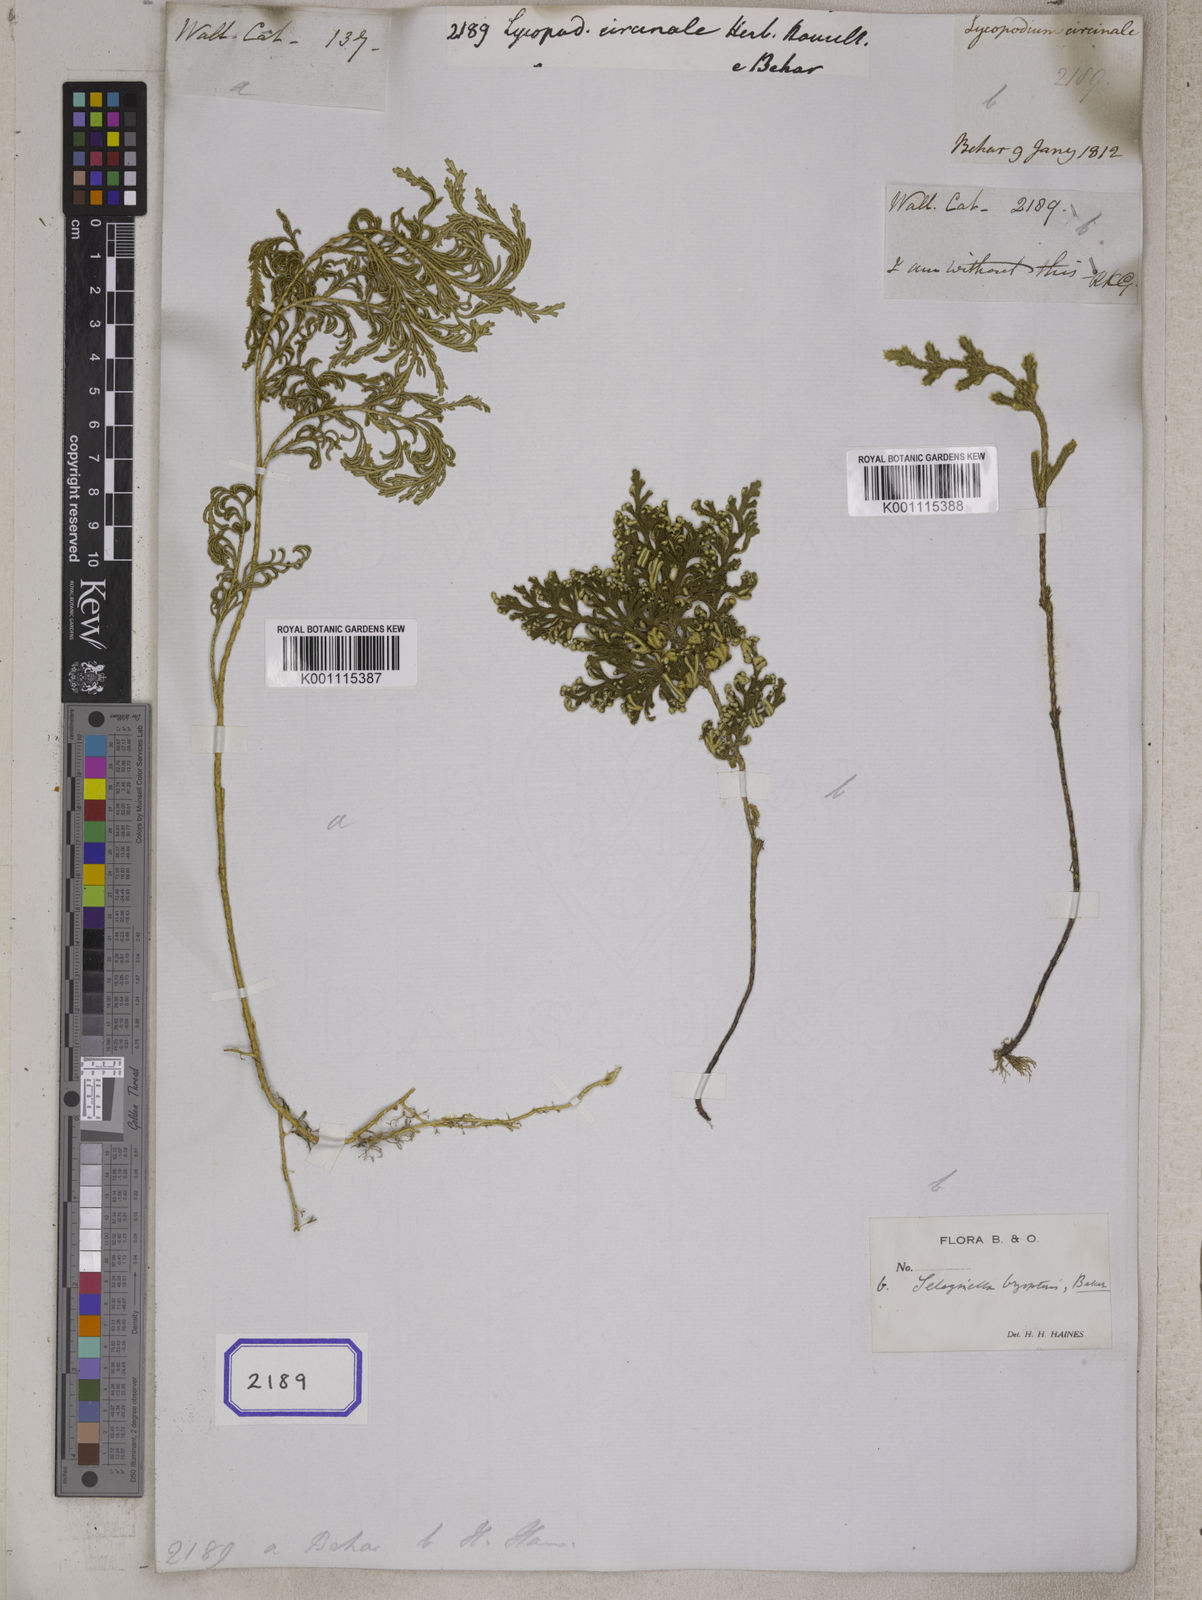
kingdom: Plantae
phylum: Tracheophyta
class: Lycopodiopsida
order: Lycopodiales
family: Lycopodiaceae
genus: Lycopodium
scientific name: Lycopodium
